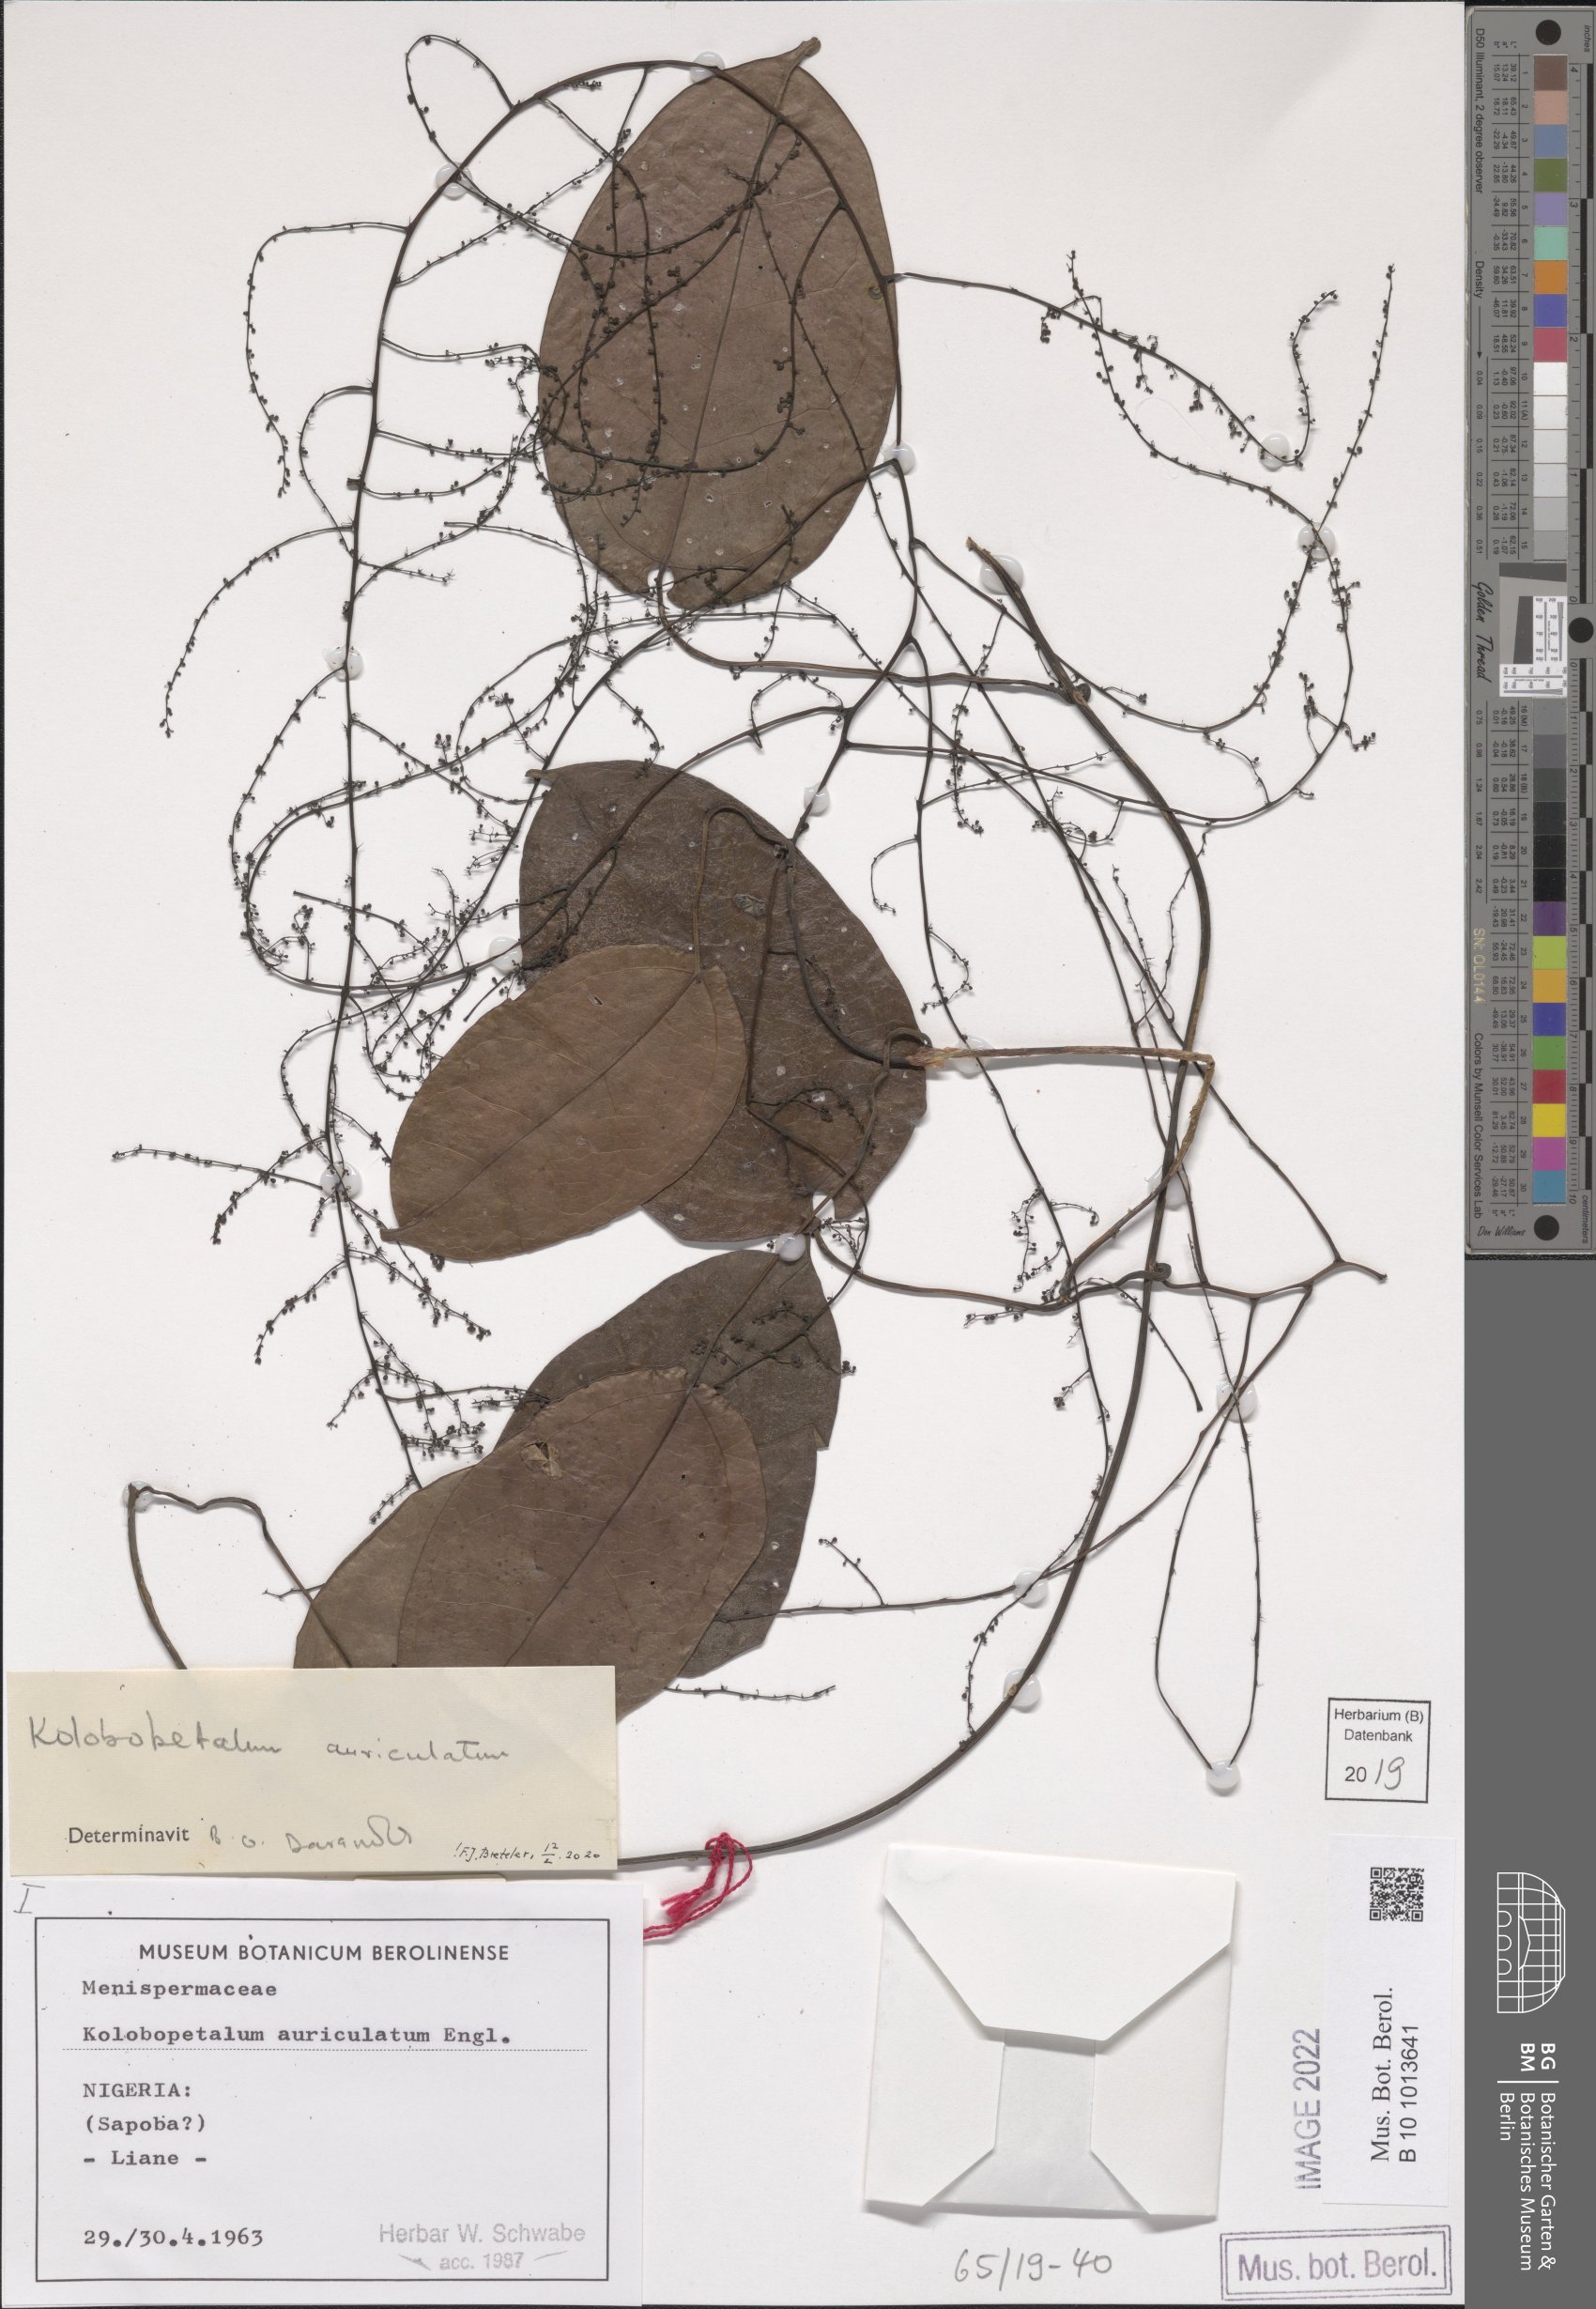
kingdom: Plantae
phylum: Tracheophyta
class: Magnoliopsida
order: Ranunculales
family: Menispermaceae
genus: Kolobopetalum
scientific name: Kolobopetalum auriculatum
